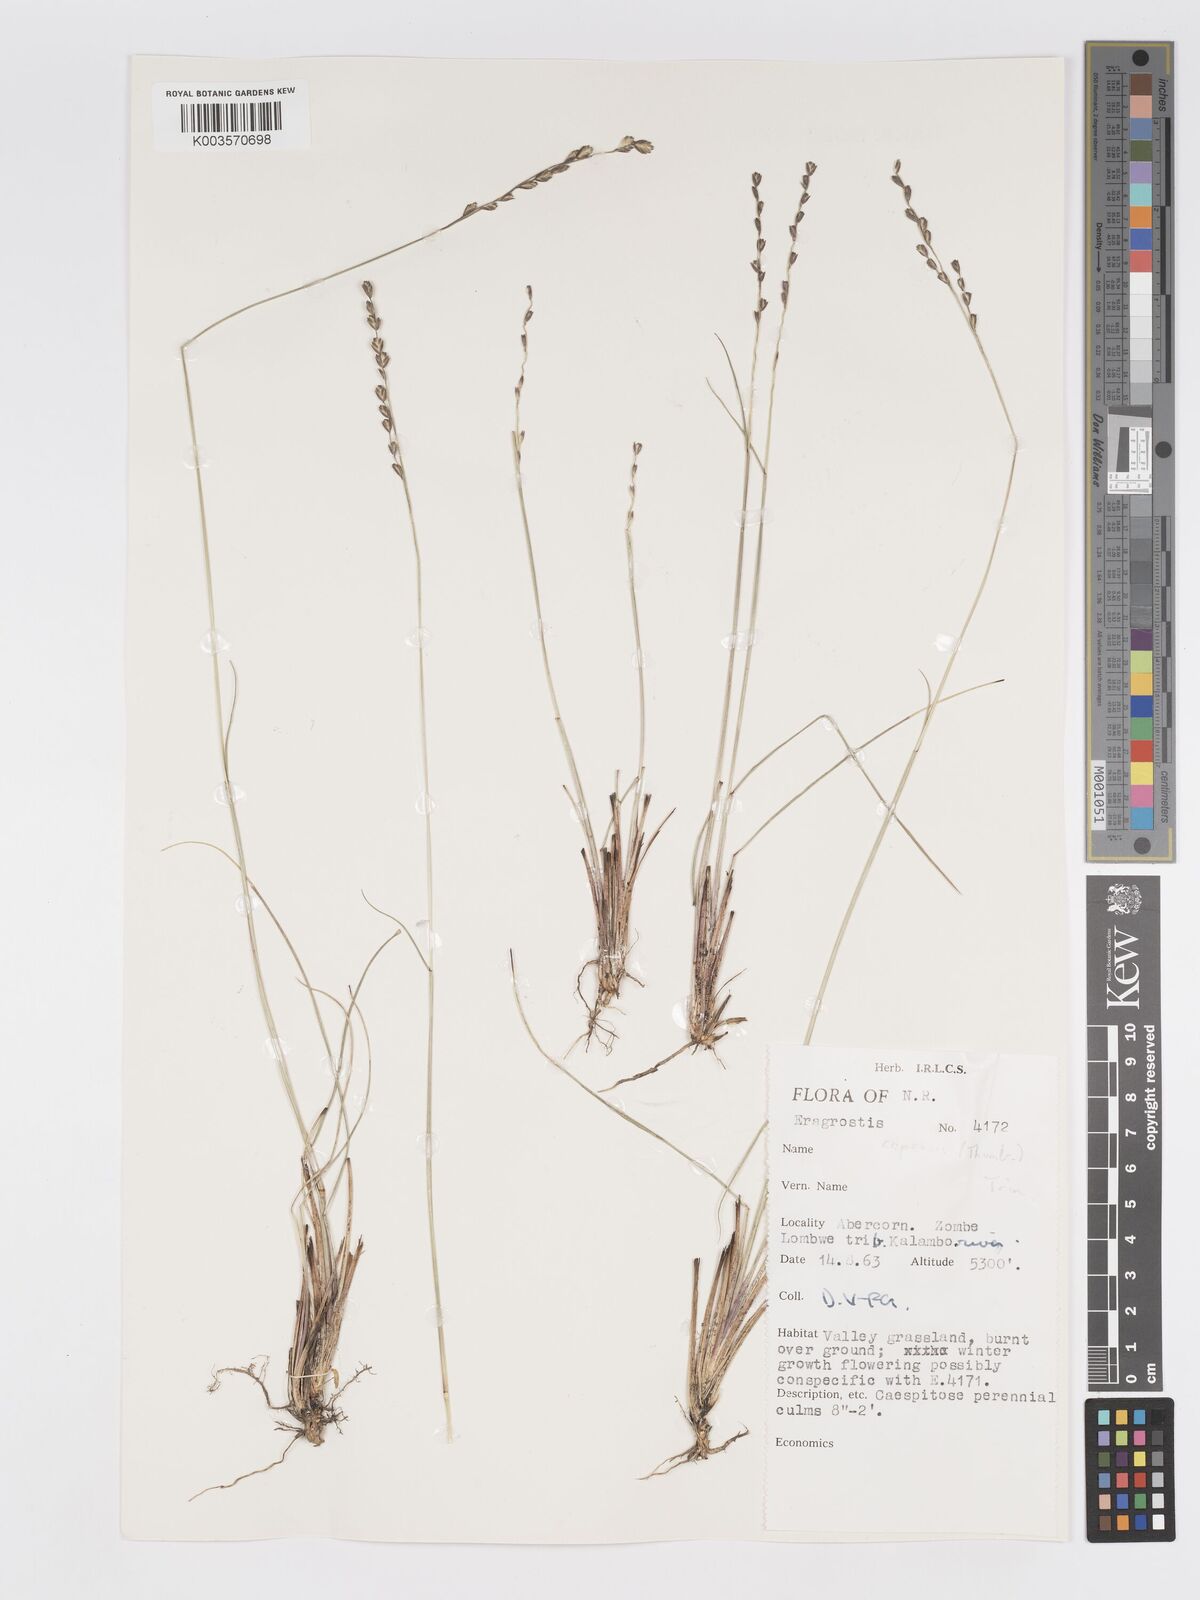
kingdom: Plantae
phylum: Tracheophyta
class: Liliopsida
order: Poales
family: Poaceae
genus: Eragrostis
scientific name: Eragrostis capensis
